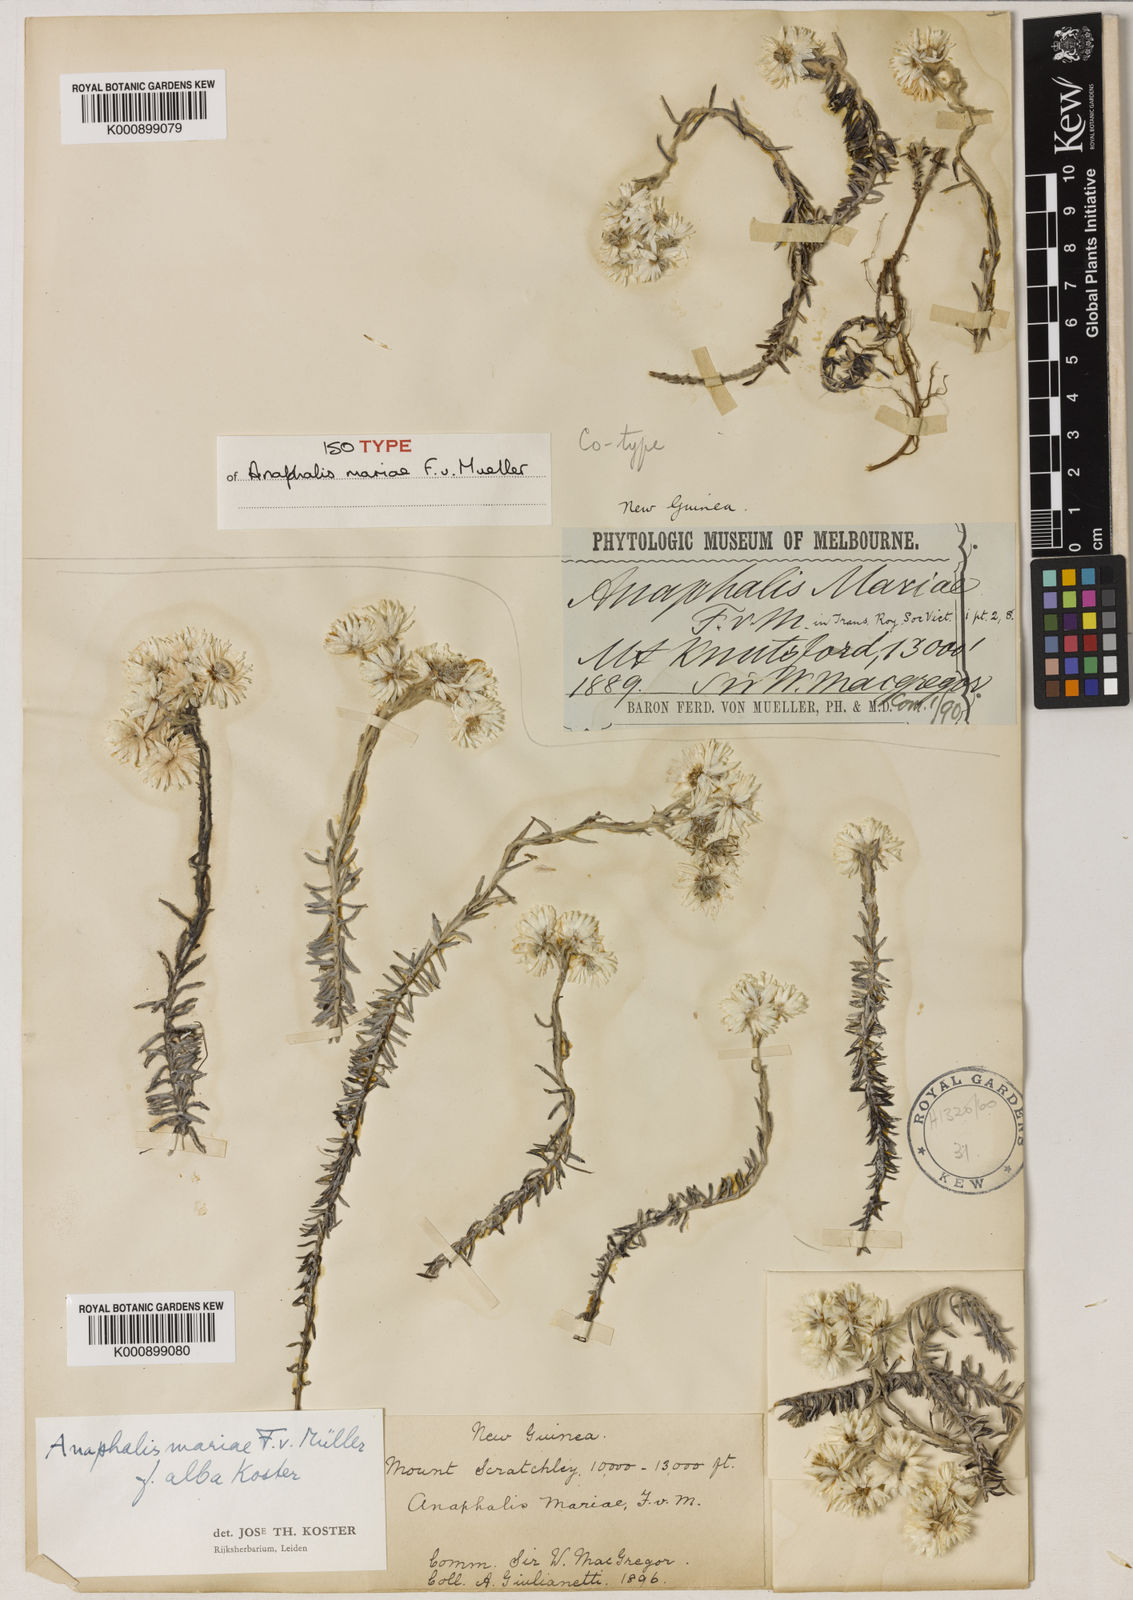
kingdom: Plantae
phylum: Tracheophyta
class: Magnoliopsida
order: Asterales
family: Asteraceae
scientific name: Asteraceae
